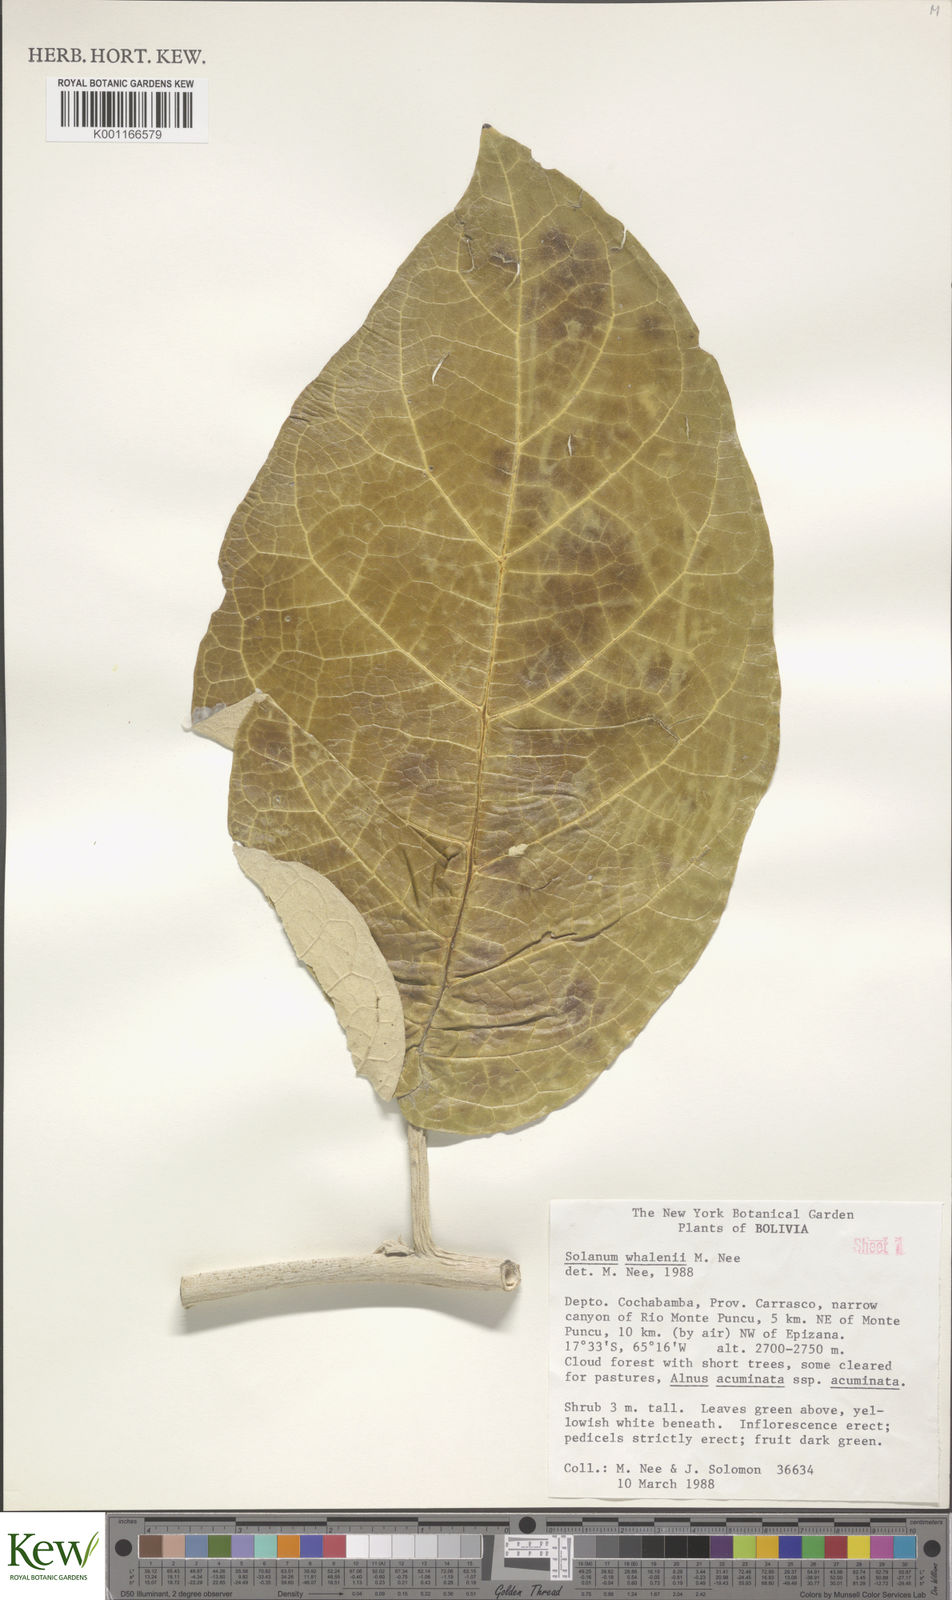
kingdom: Plantae
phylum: Tracheophyta
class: Magnoliopsida
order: Solanales
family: Solanaceae
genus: Solanum
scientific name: Solanum whalenii
